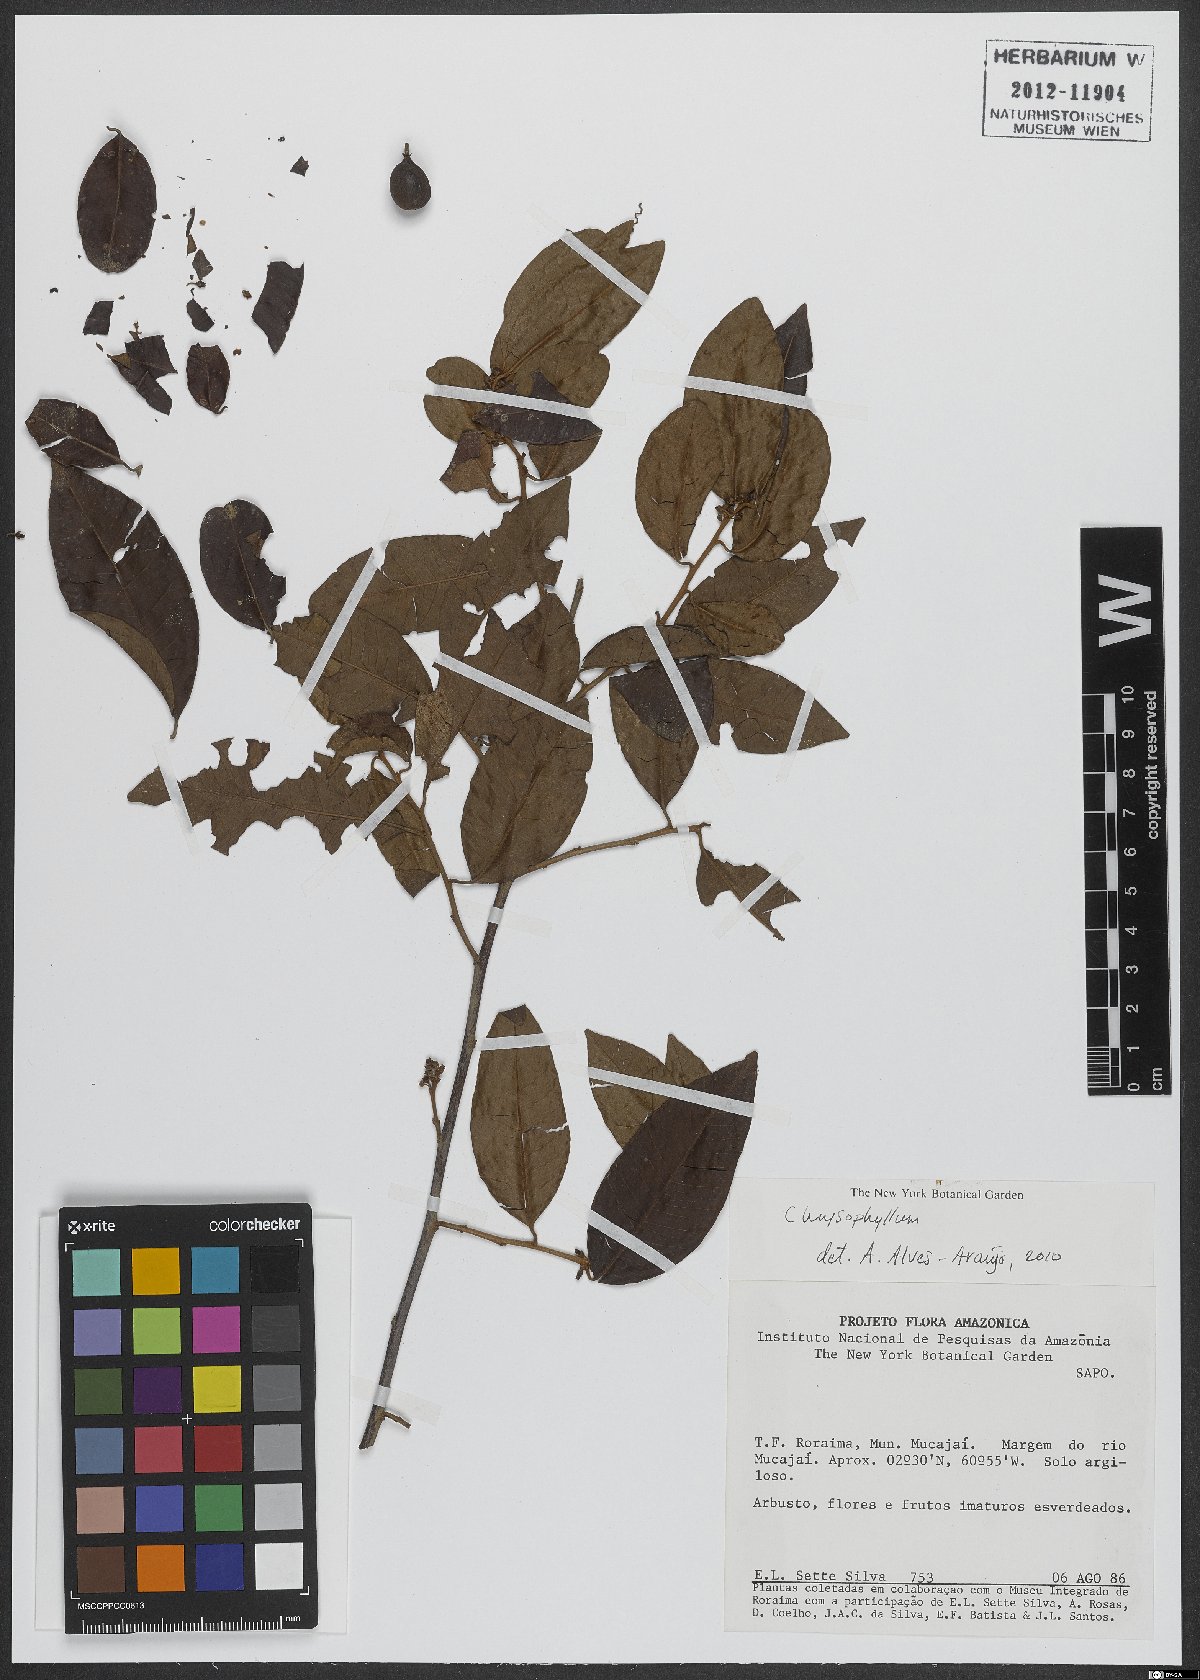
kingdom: Plantae
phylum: Tracheophyta
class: Magnoliopsida
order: Ericales
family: Sapotaceae
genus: Chrysophyllum
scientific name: Chrysophyllum
